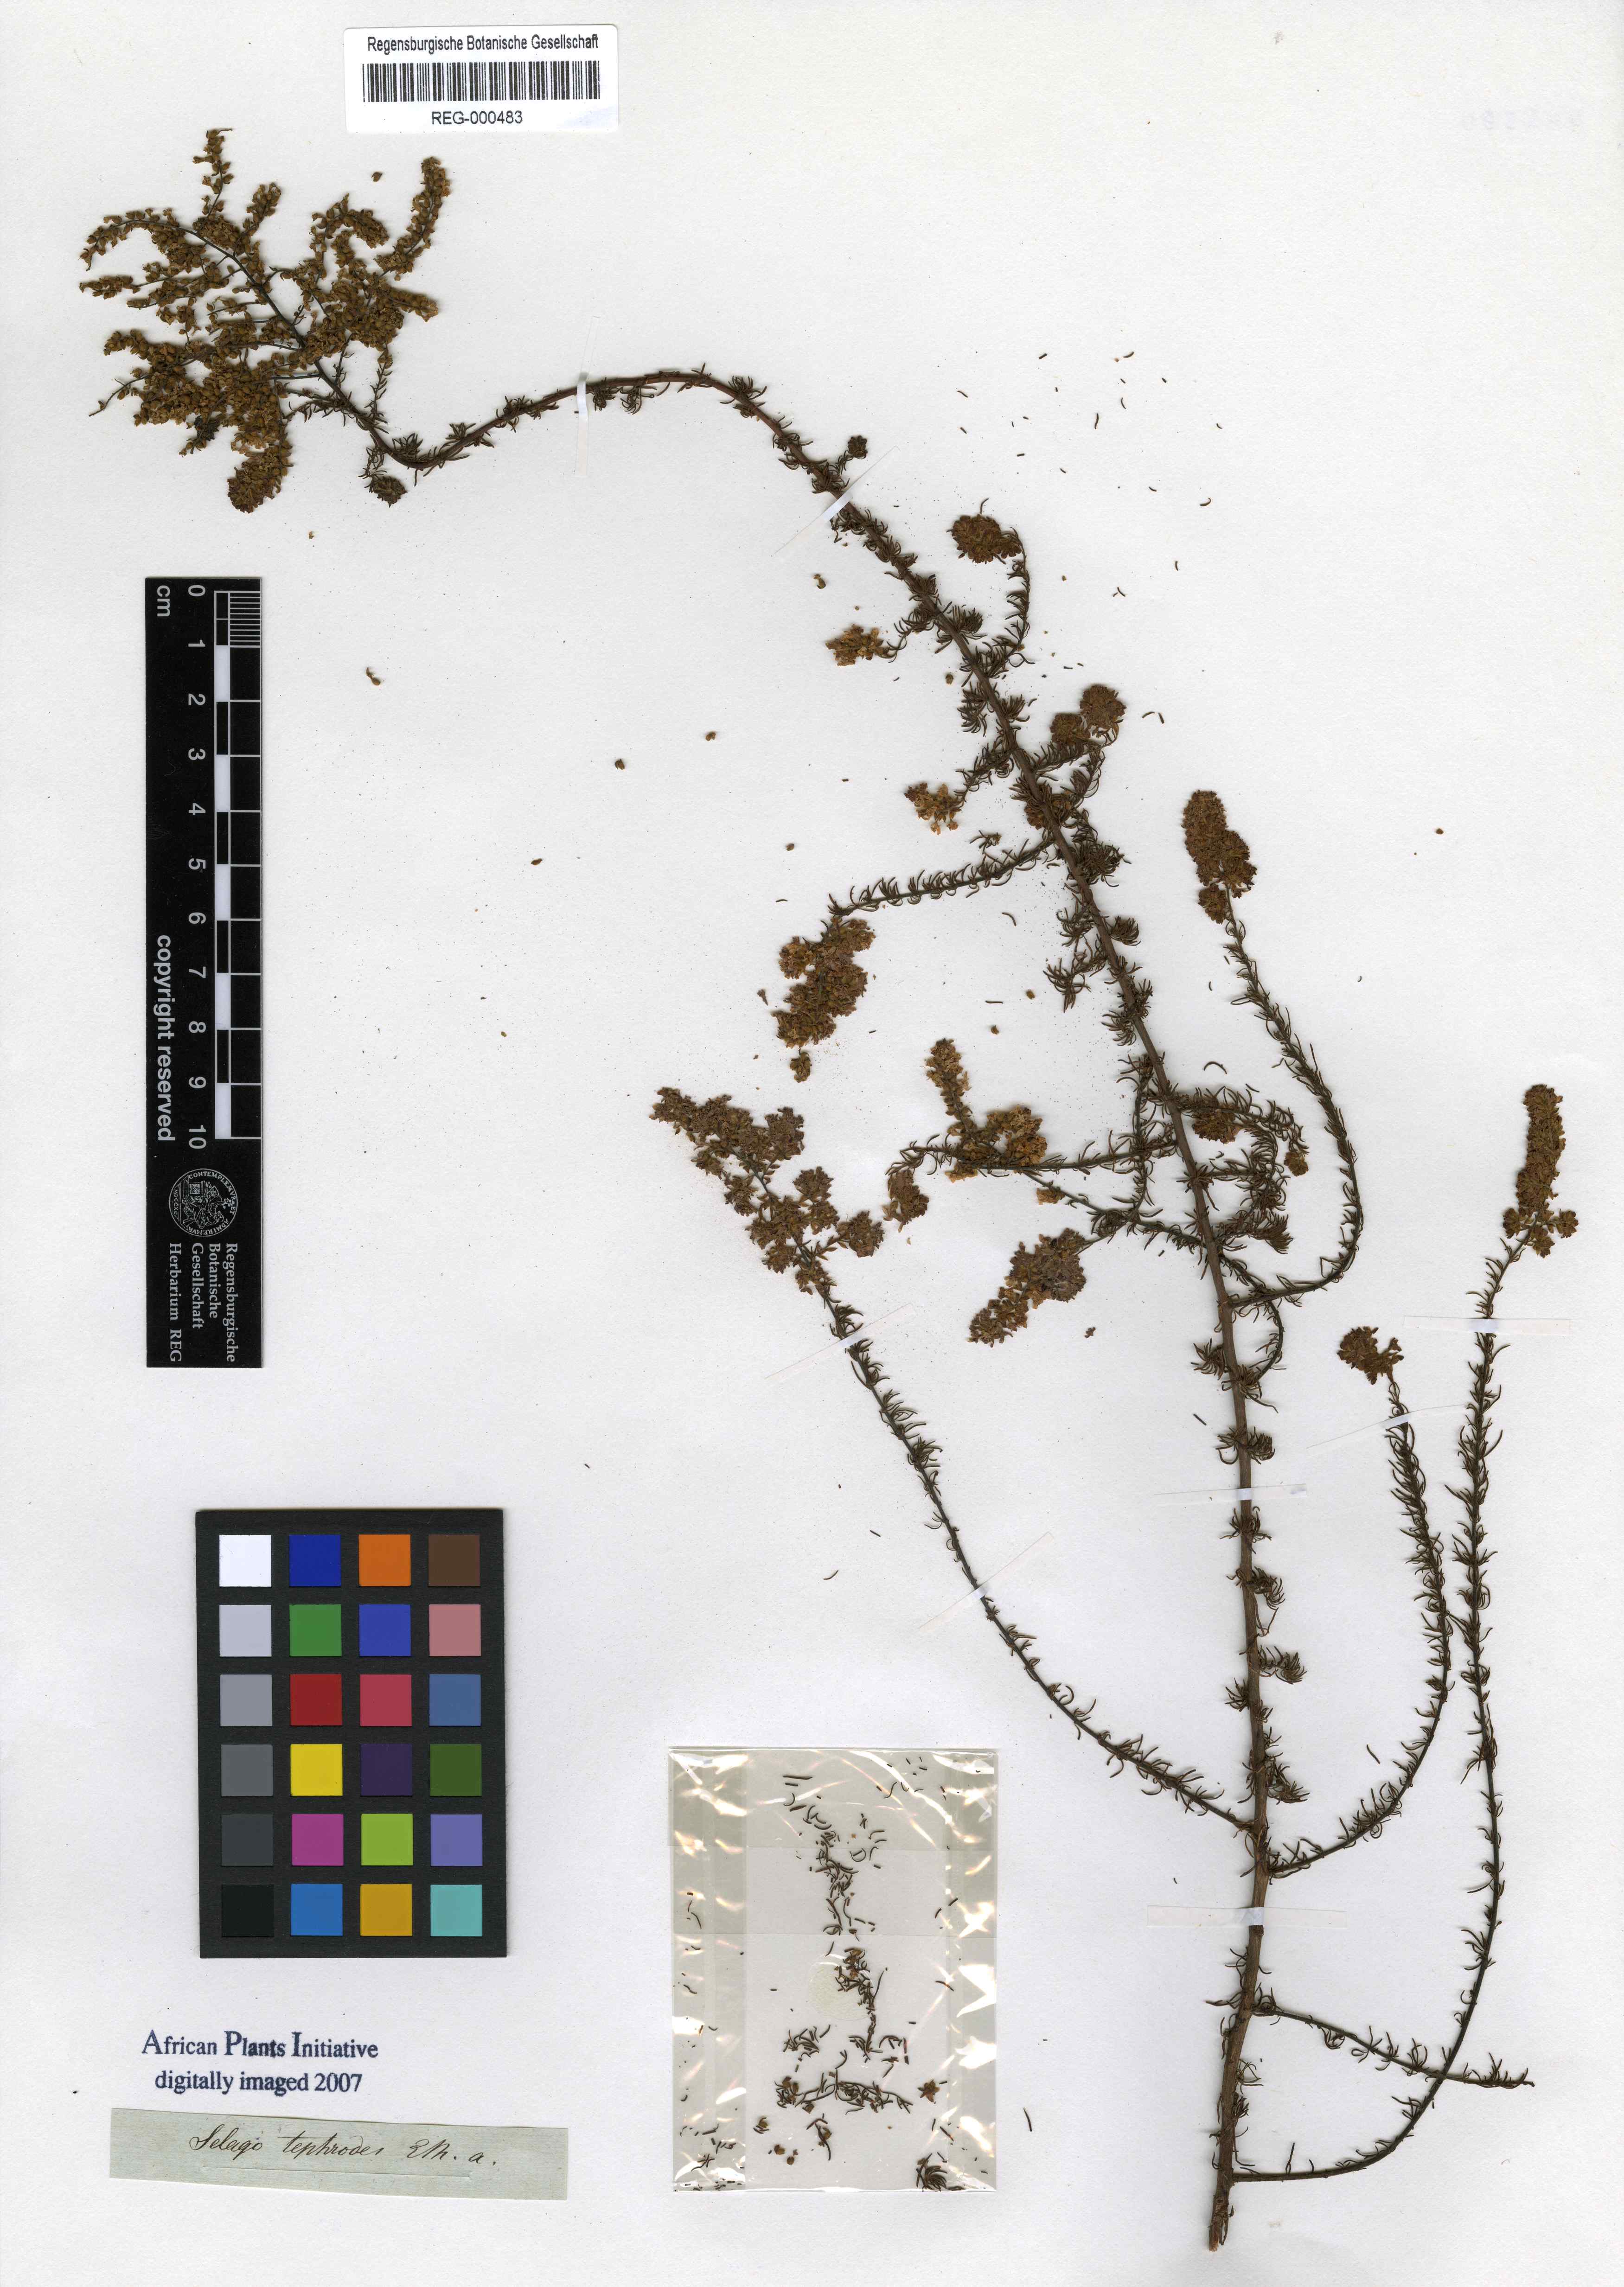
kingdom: Plantae
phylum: Tracheophyta
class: Magnoliopsida
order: Lamiales
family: Scrophulariaceae
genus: Globulariopsis
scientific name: Globulariopsis tephrodes
